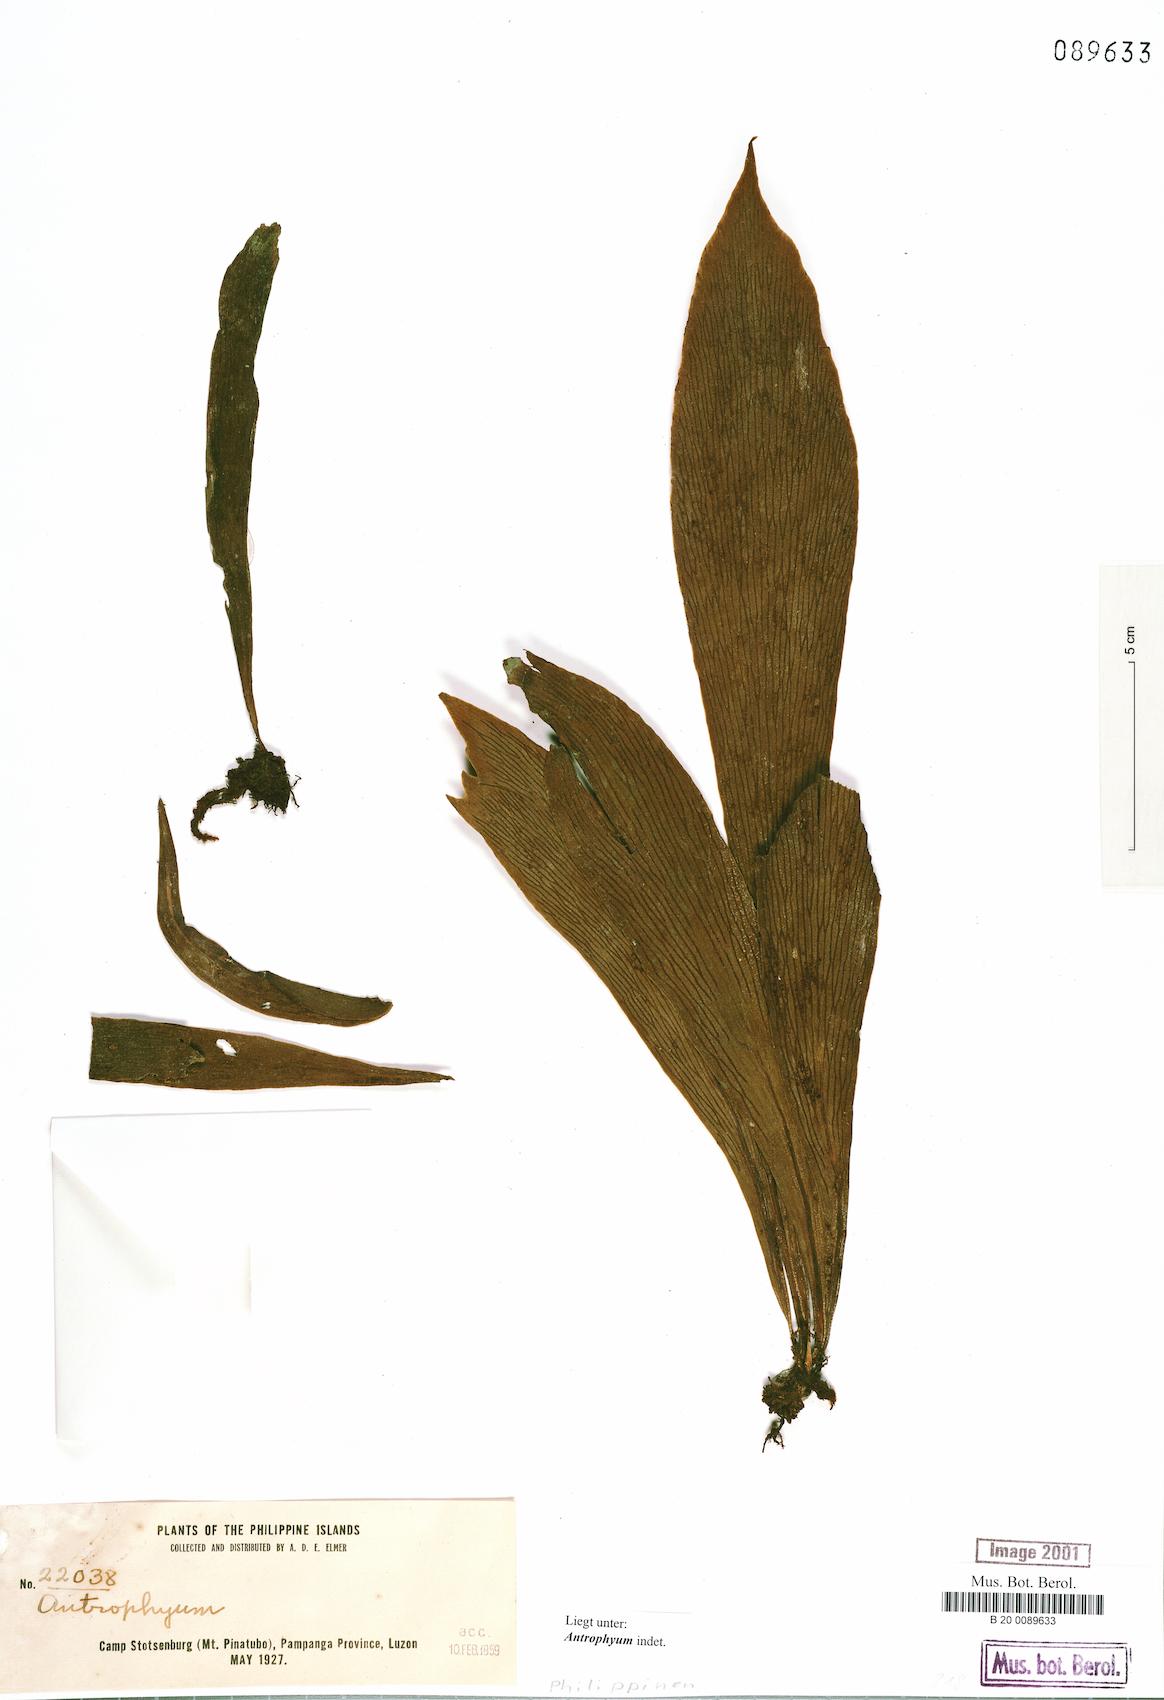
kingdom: Plantae
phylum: Tracheophyta
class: Polypodiopsida
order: Polypodiales
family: Pteridaceae
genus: Antrophyum
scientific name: Antrophyum
